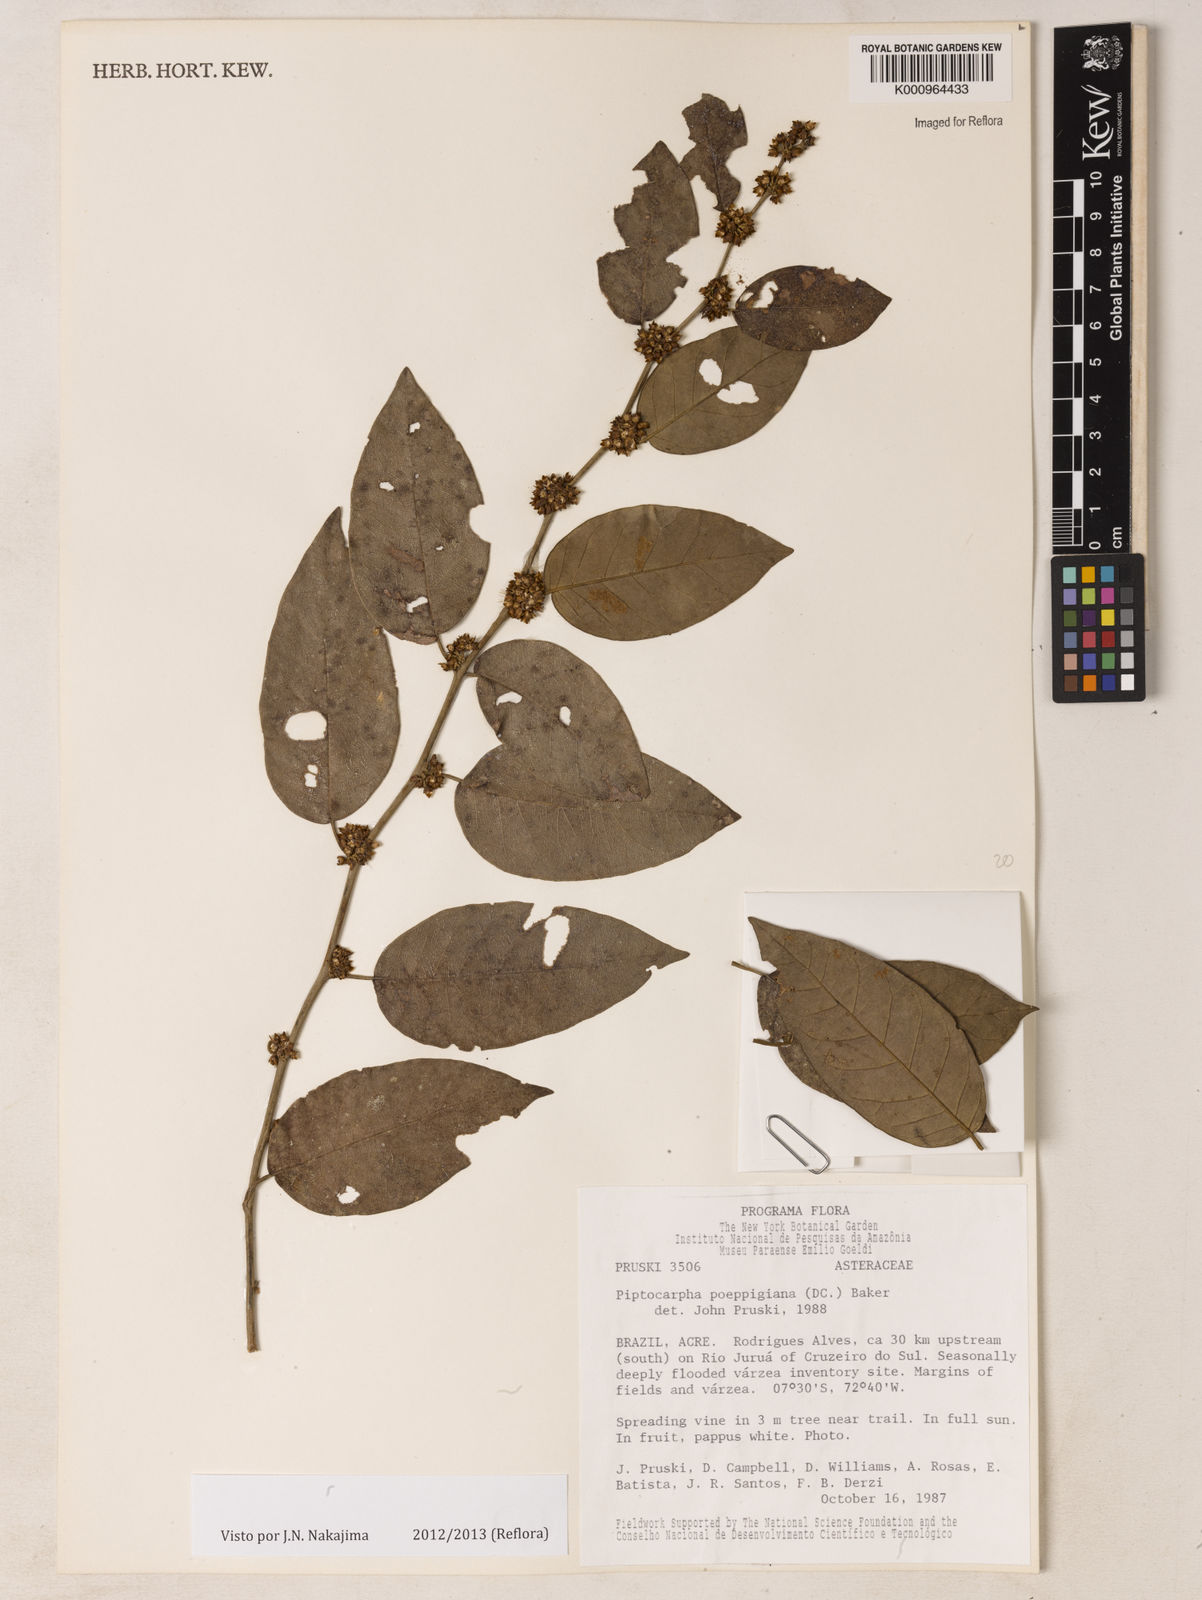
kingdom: Plantae
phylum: Tracheophyta
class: Magnoliopsida
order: Asterales
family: Asteraceae
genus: Piptocarpha
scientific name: Piptocarpha poeppigiana
